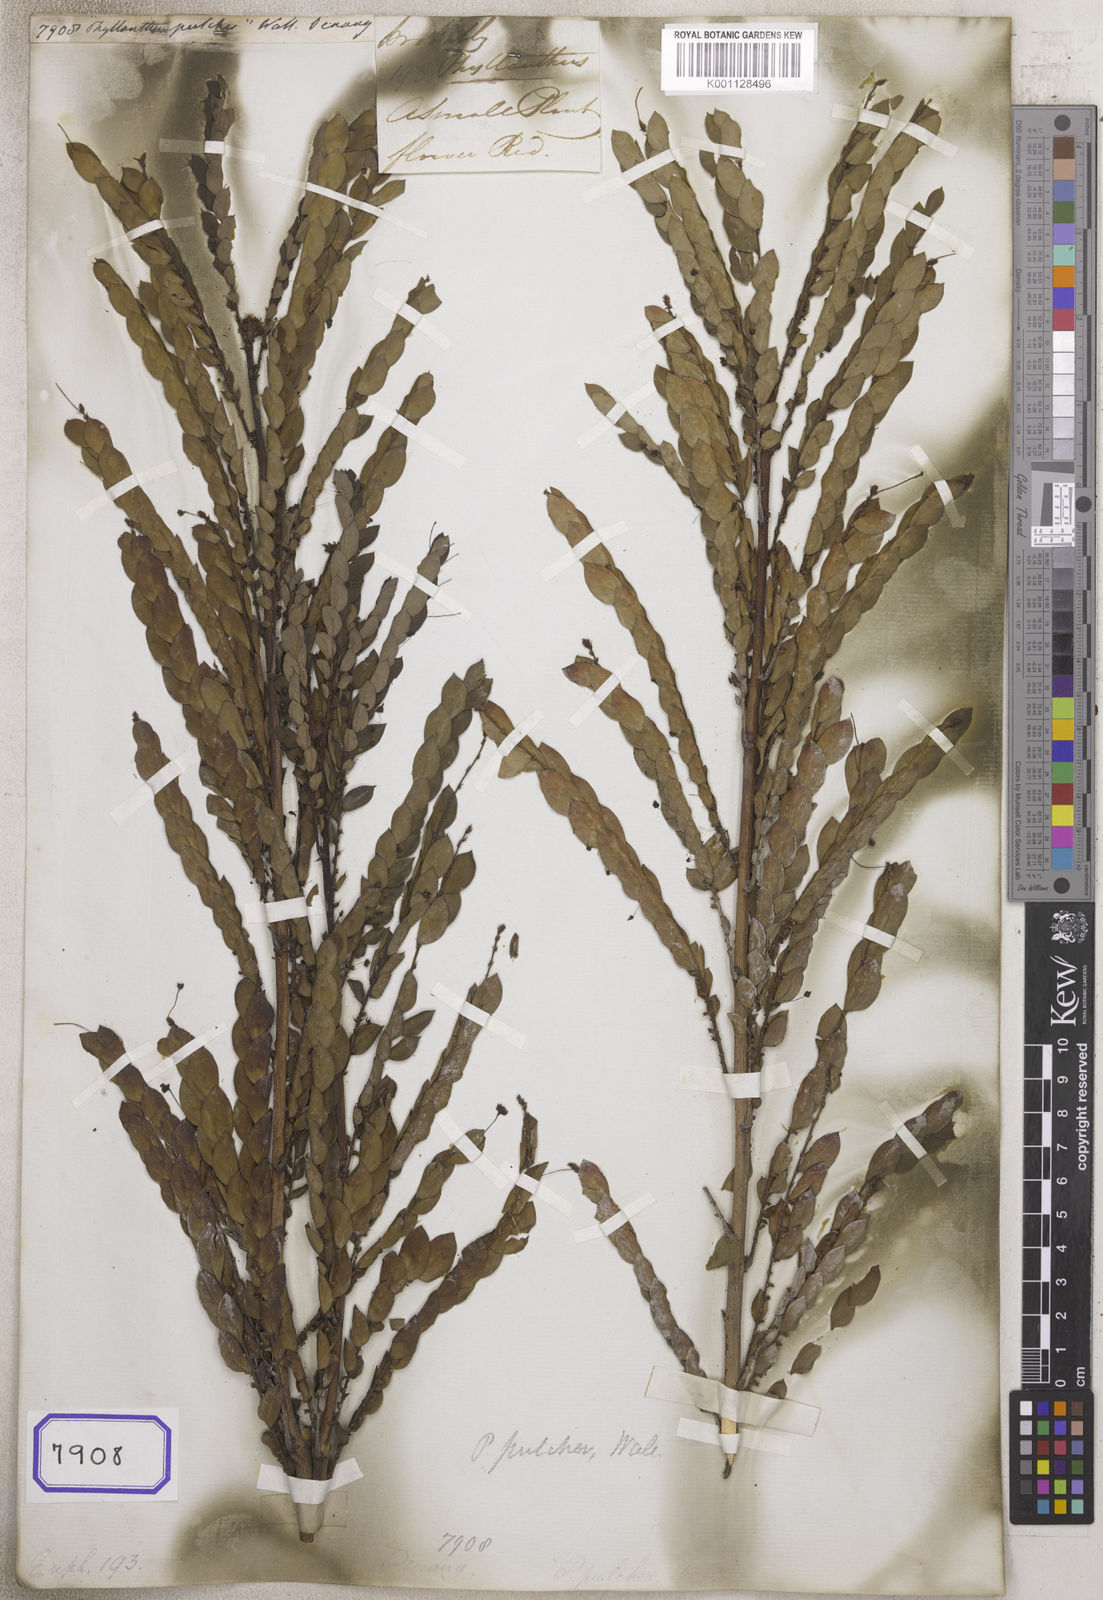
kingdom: Plantae
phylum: Tracheophyta
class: Magnoliopsida
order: Malpighiales
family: Euphorbiaceae
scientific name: Euphorbiaceae
